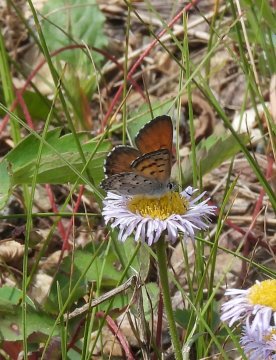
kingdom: Animalia
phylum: Arthropoda
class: Insecta
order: Lepidoptera
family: Lycaenidae
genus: Lycaena
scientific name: Lycaena mariposa
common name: Mariposa Copper
